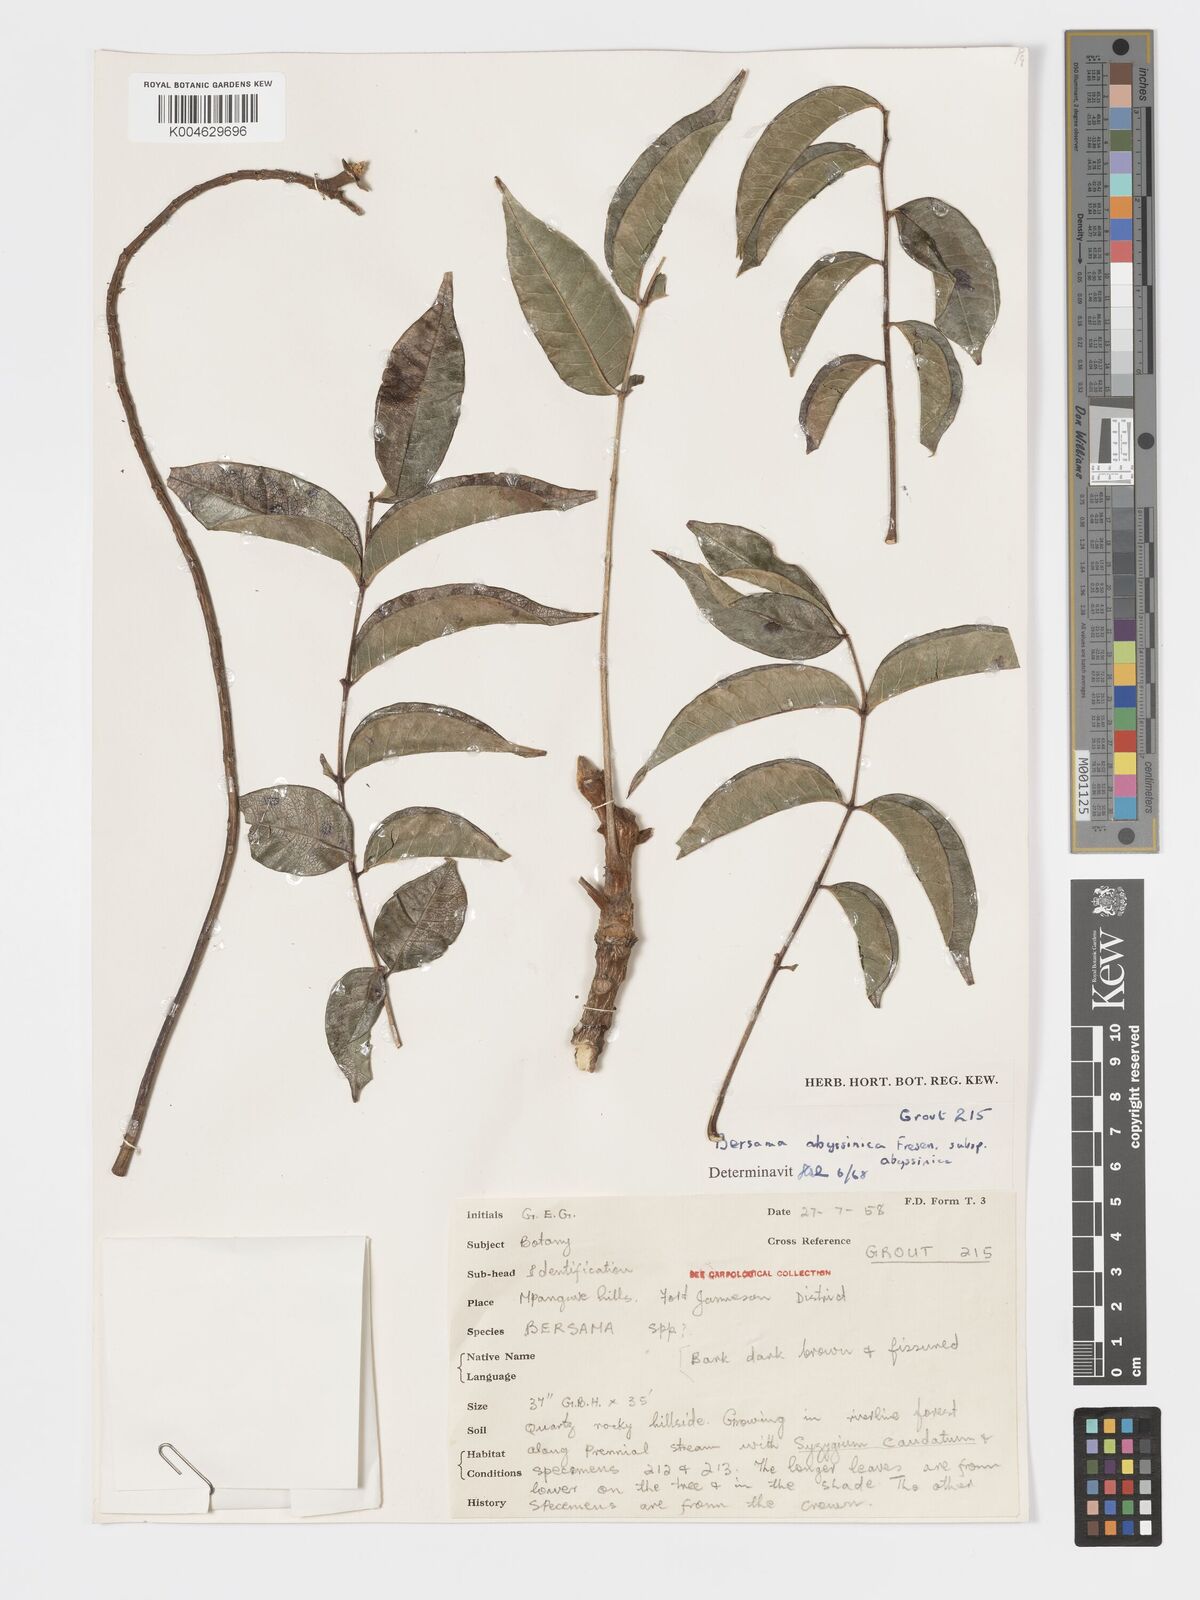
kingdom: Plantae
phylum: Tracheophyta
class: Magnoliopsida
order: Geraniales
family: Melianthaceae
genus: Bersama
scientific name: Bersama abyssinica
